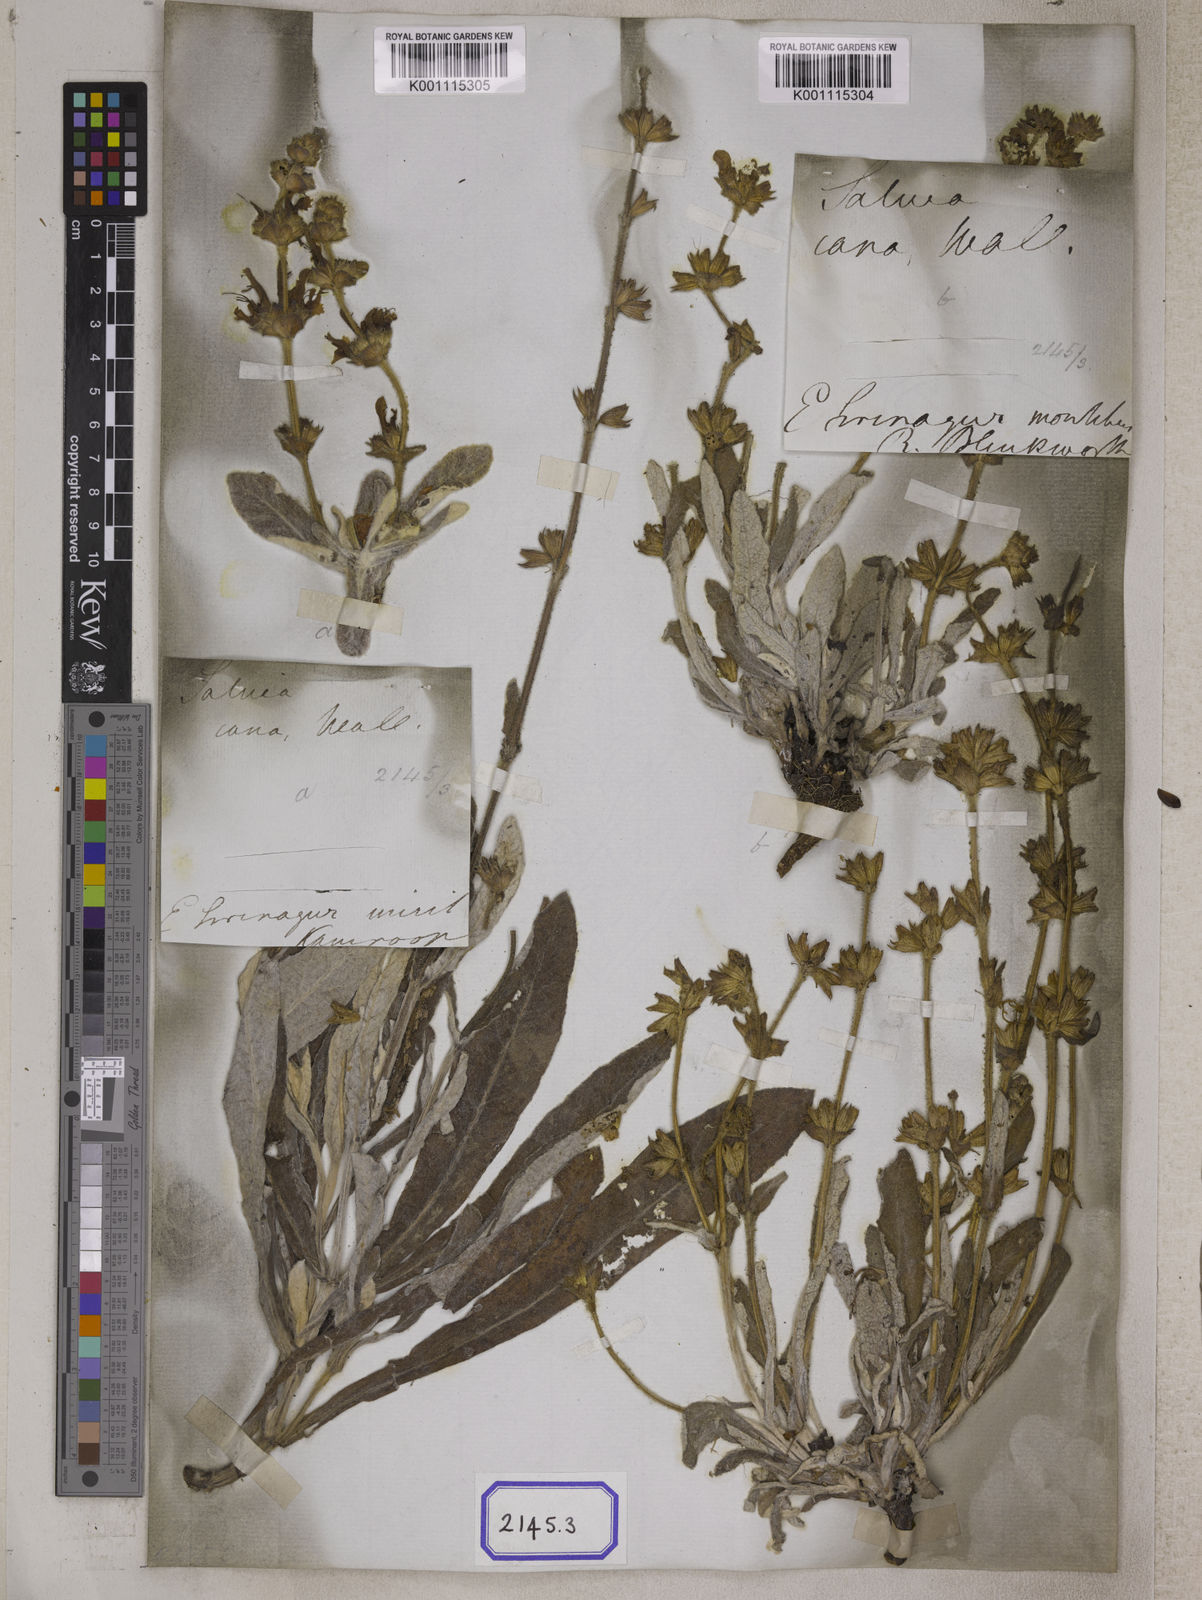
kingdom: Plantae
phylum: Tracheophyta
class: Magnoliopsida
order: Lamiales
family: Lamiaceae
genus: Salvia
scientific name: Salvia
